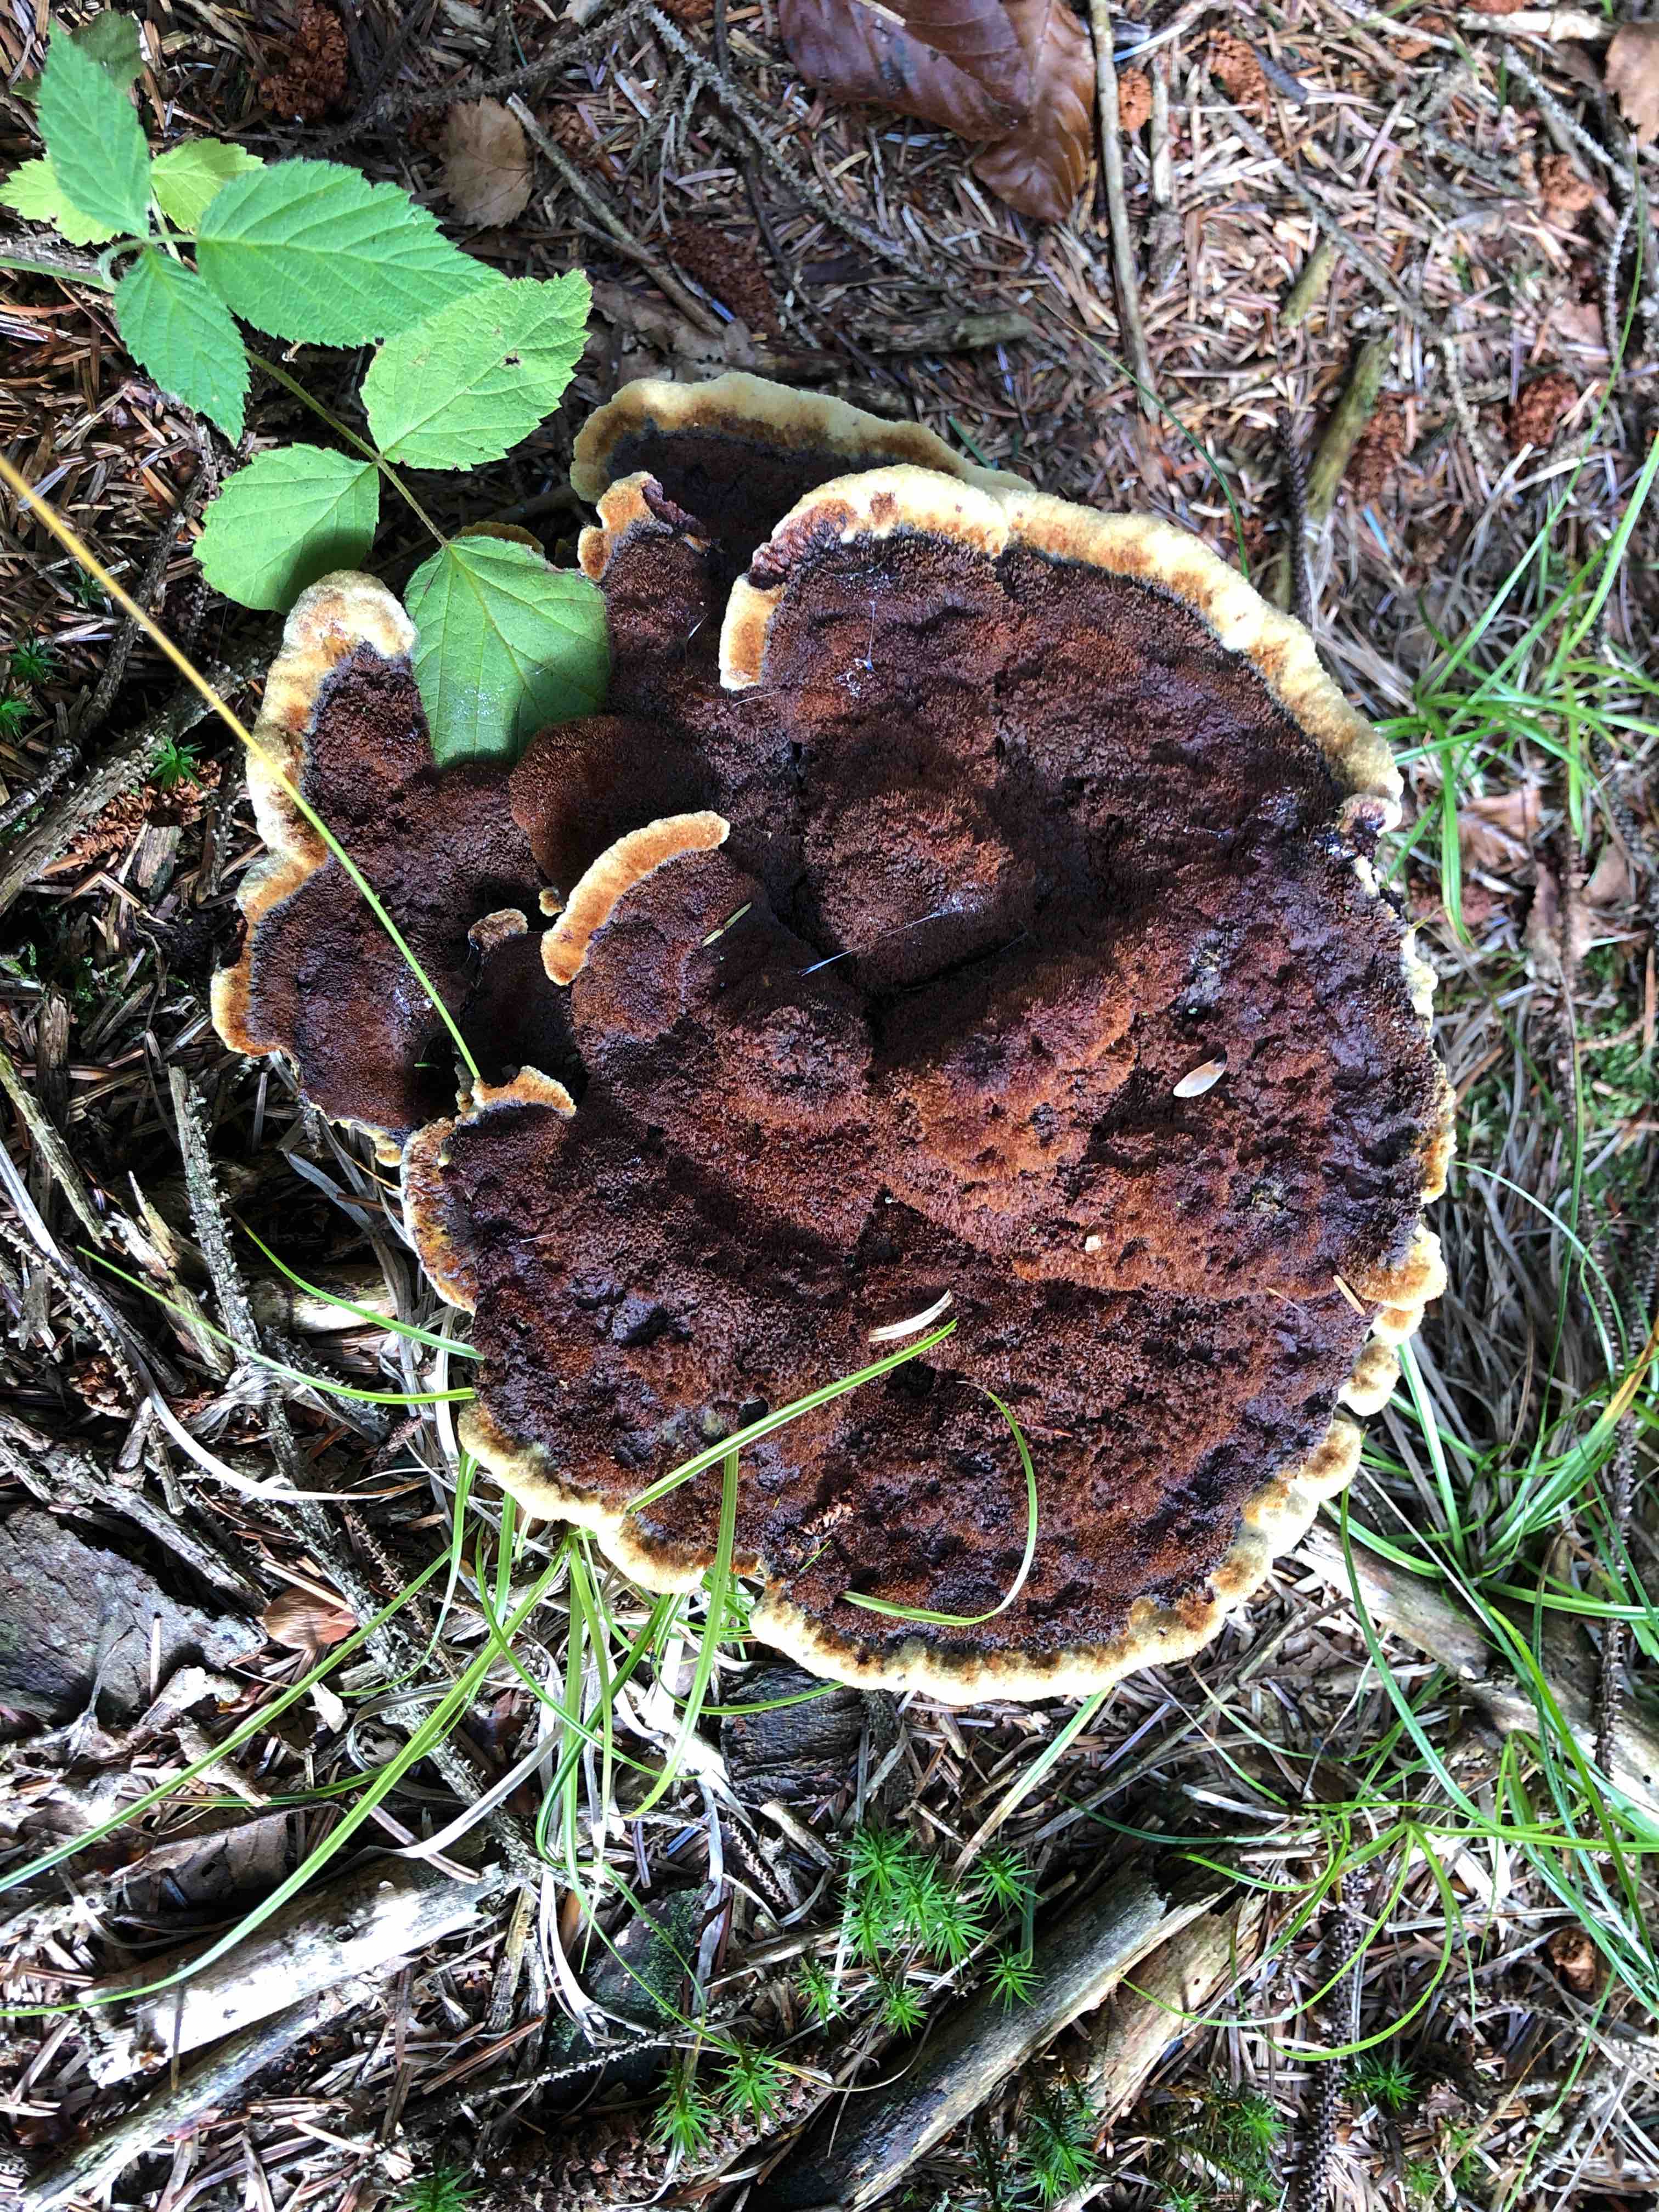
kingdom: Fungi
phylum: Basidiomycota
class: Agaricomycetes
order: Polyporales
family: Laetiporaceae
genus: Phaeolus
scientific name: Phaeolus schweinitzii
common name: brunporesvamp
